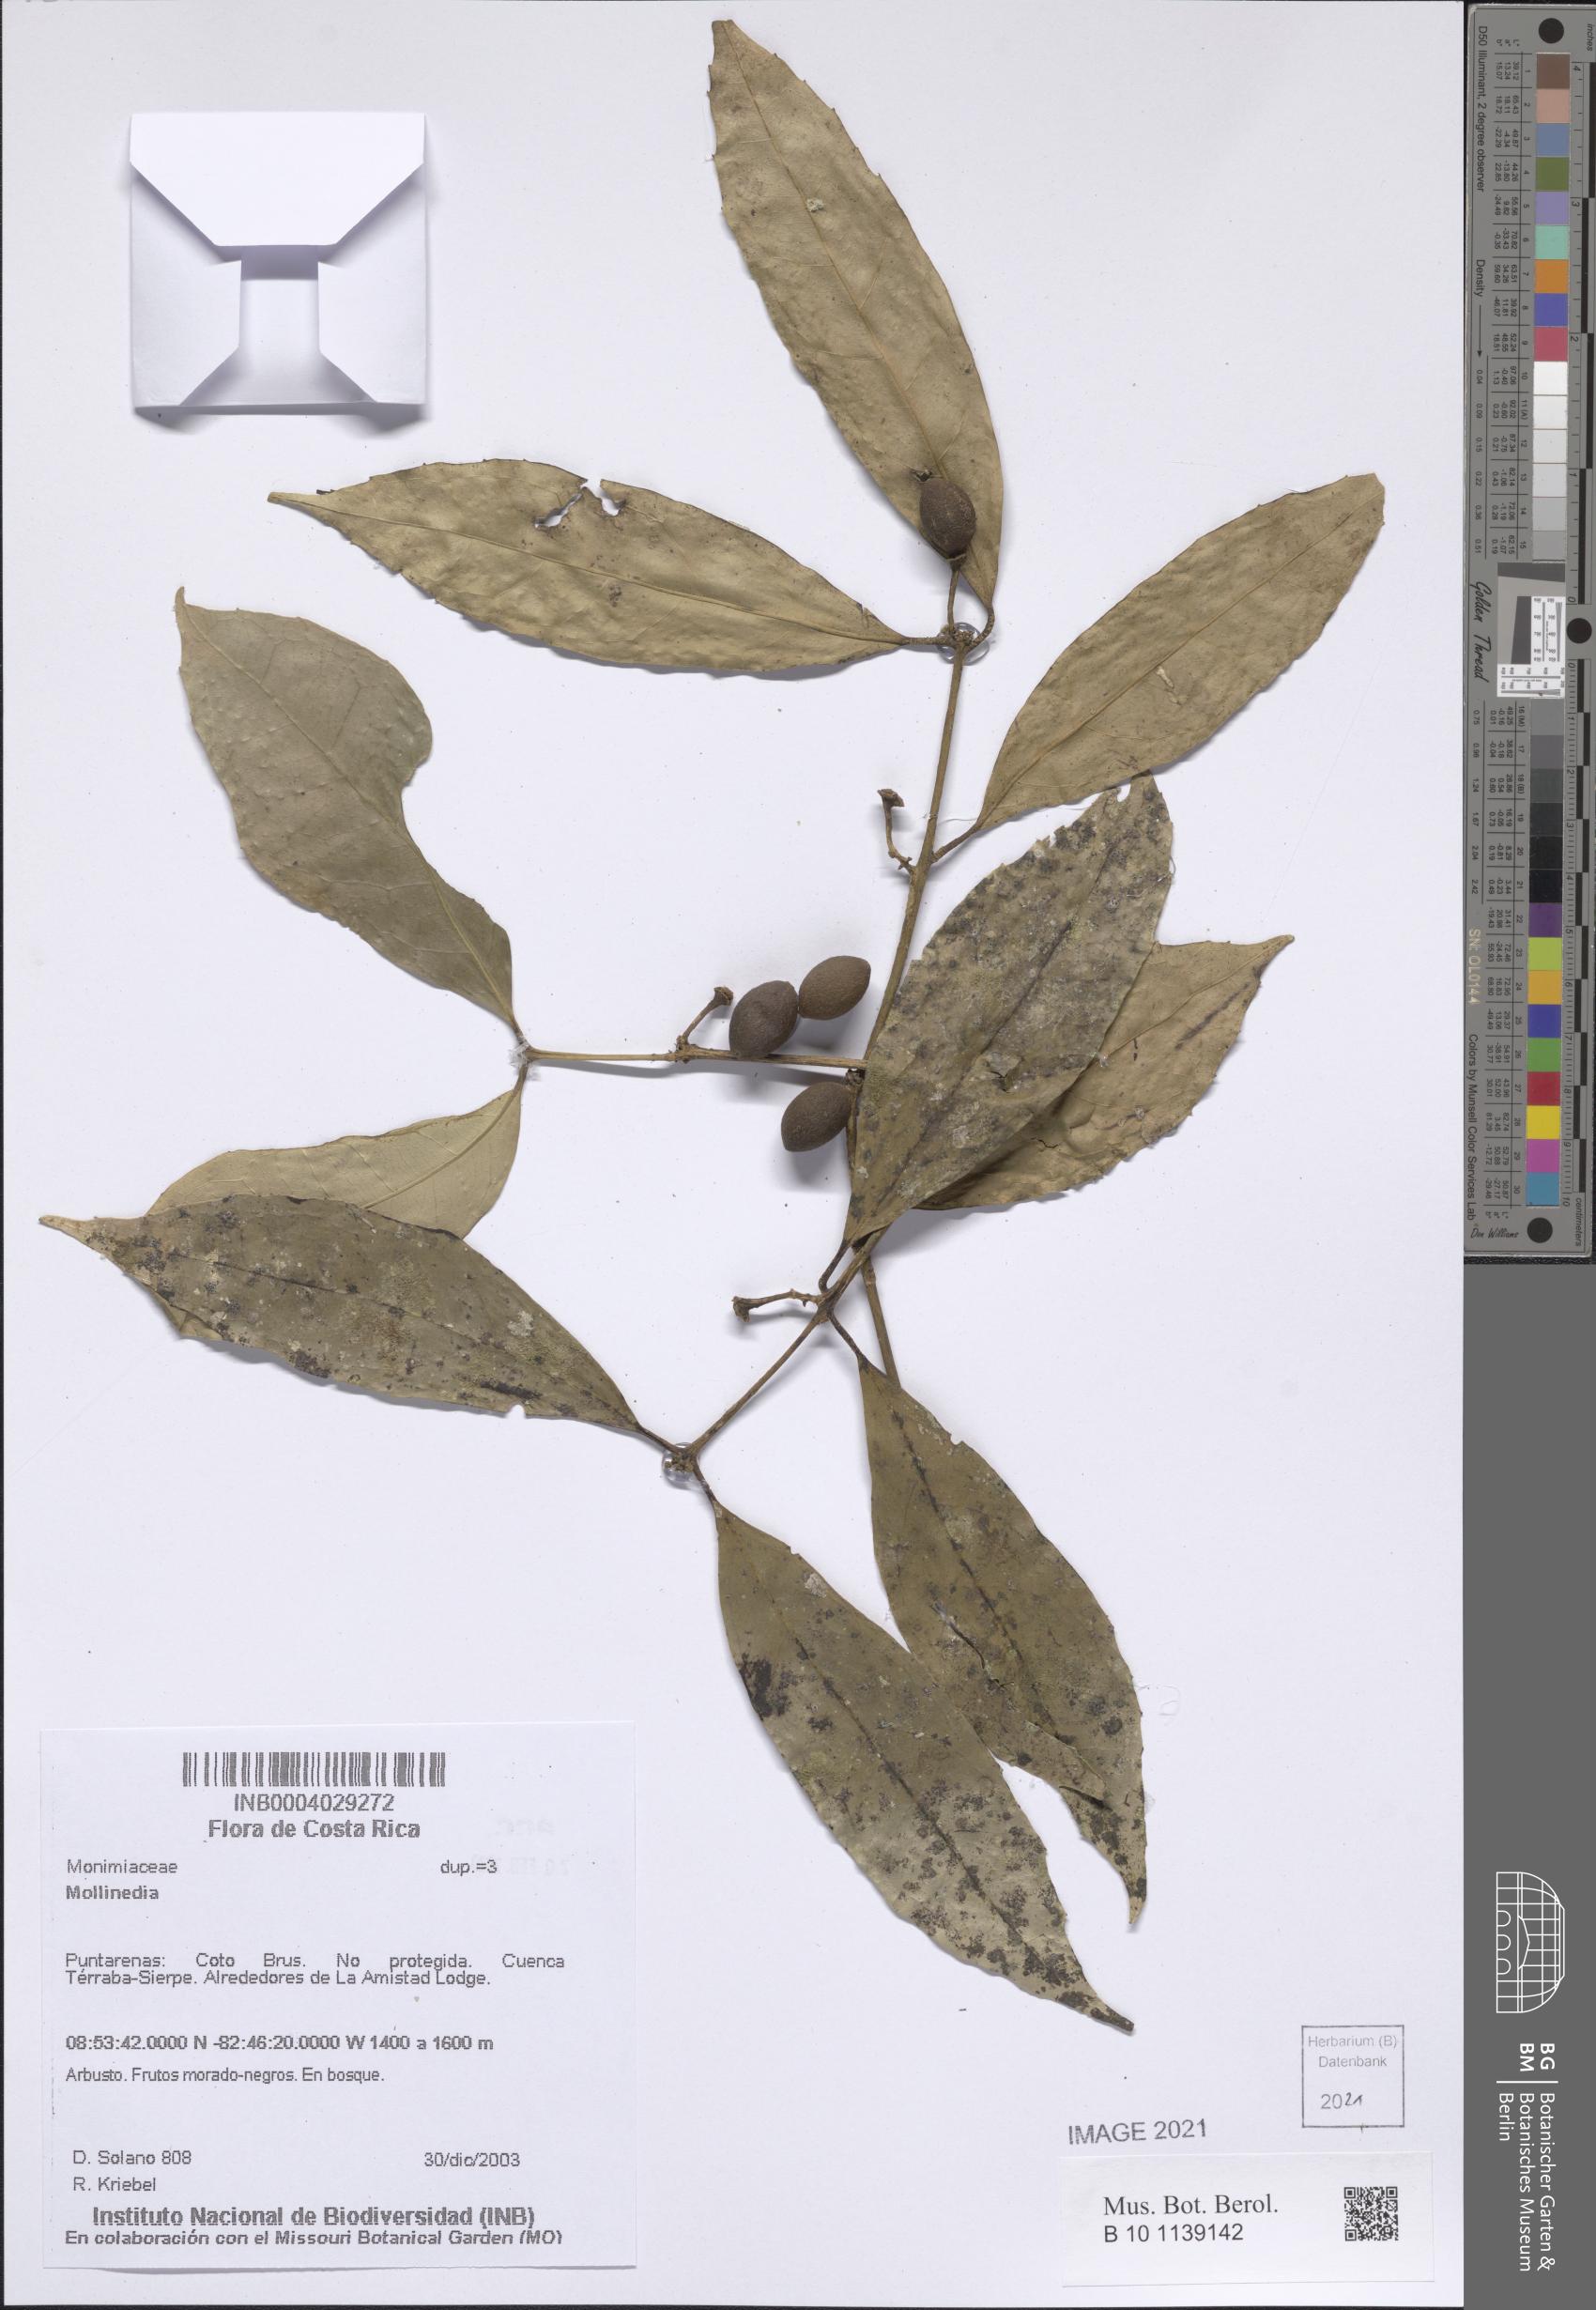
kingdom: Plantae
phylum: Tracheophyta
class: Magnoliopsida
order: Laurales
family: Monimiaceae
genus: Mollinedia
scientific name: Mollinedia viridiflora
